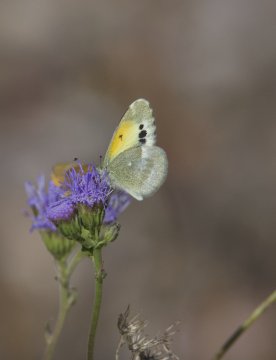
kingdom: Animalia
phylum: Arthropoda
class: Insecta
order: Lepidoptera
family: Pieridae
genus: Nathalis
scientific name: Nathalis iole
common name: Dainty Sulphur
